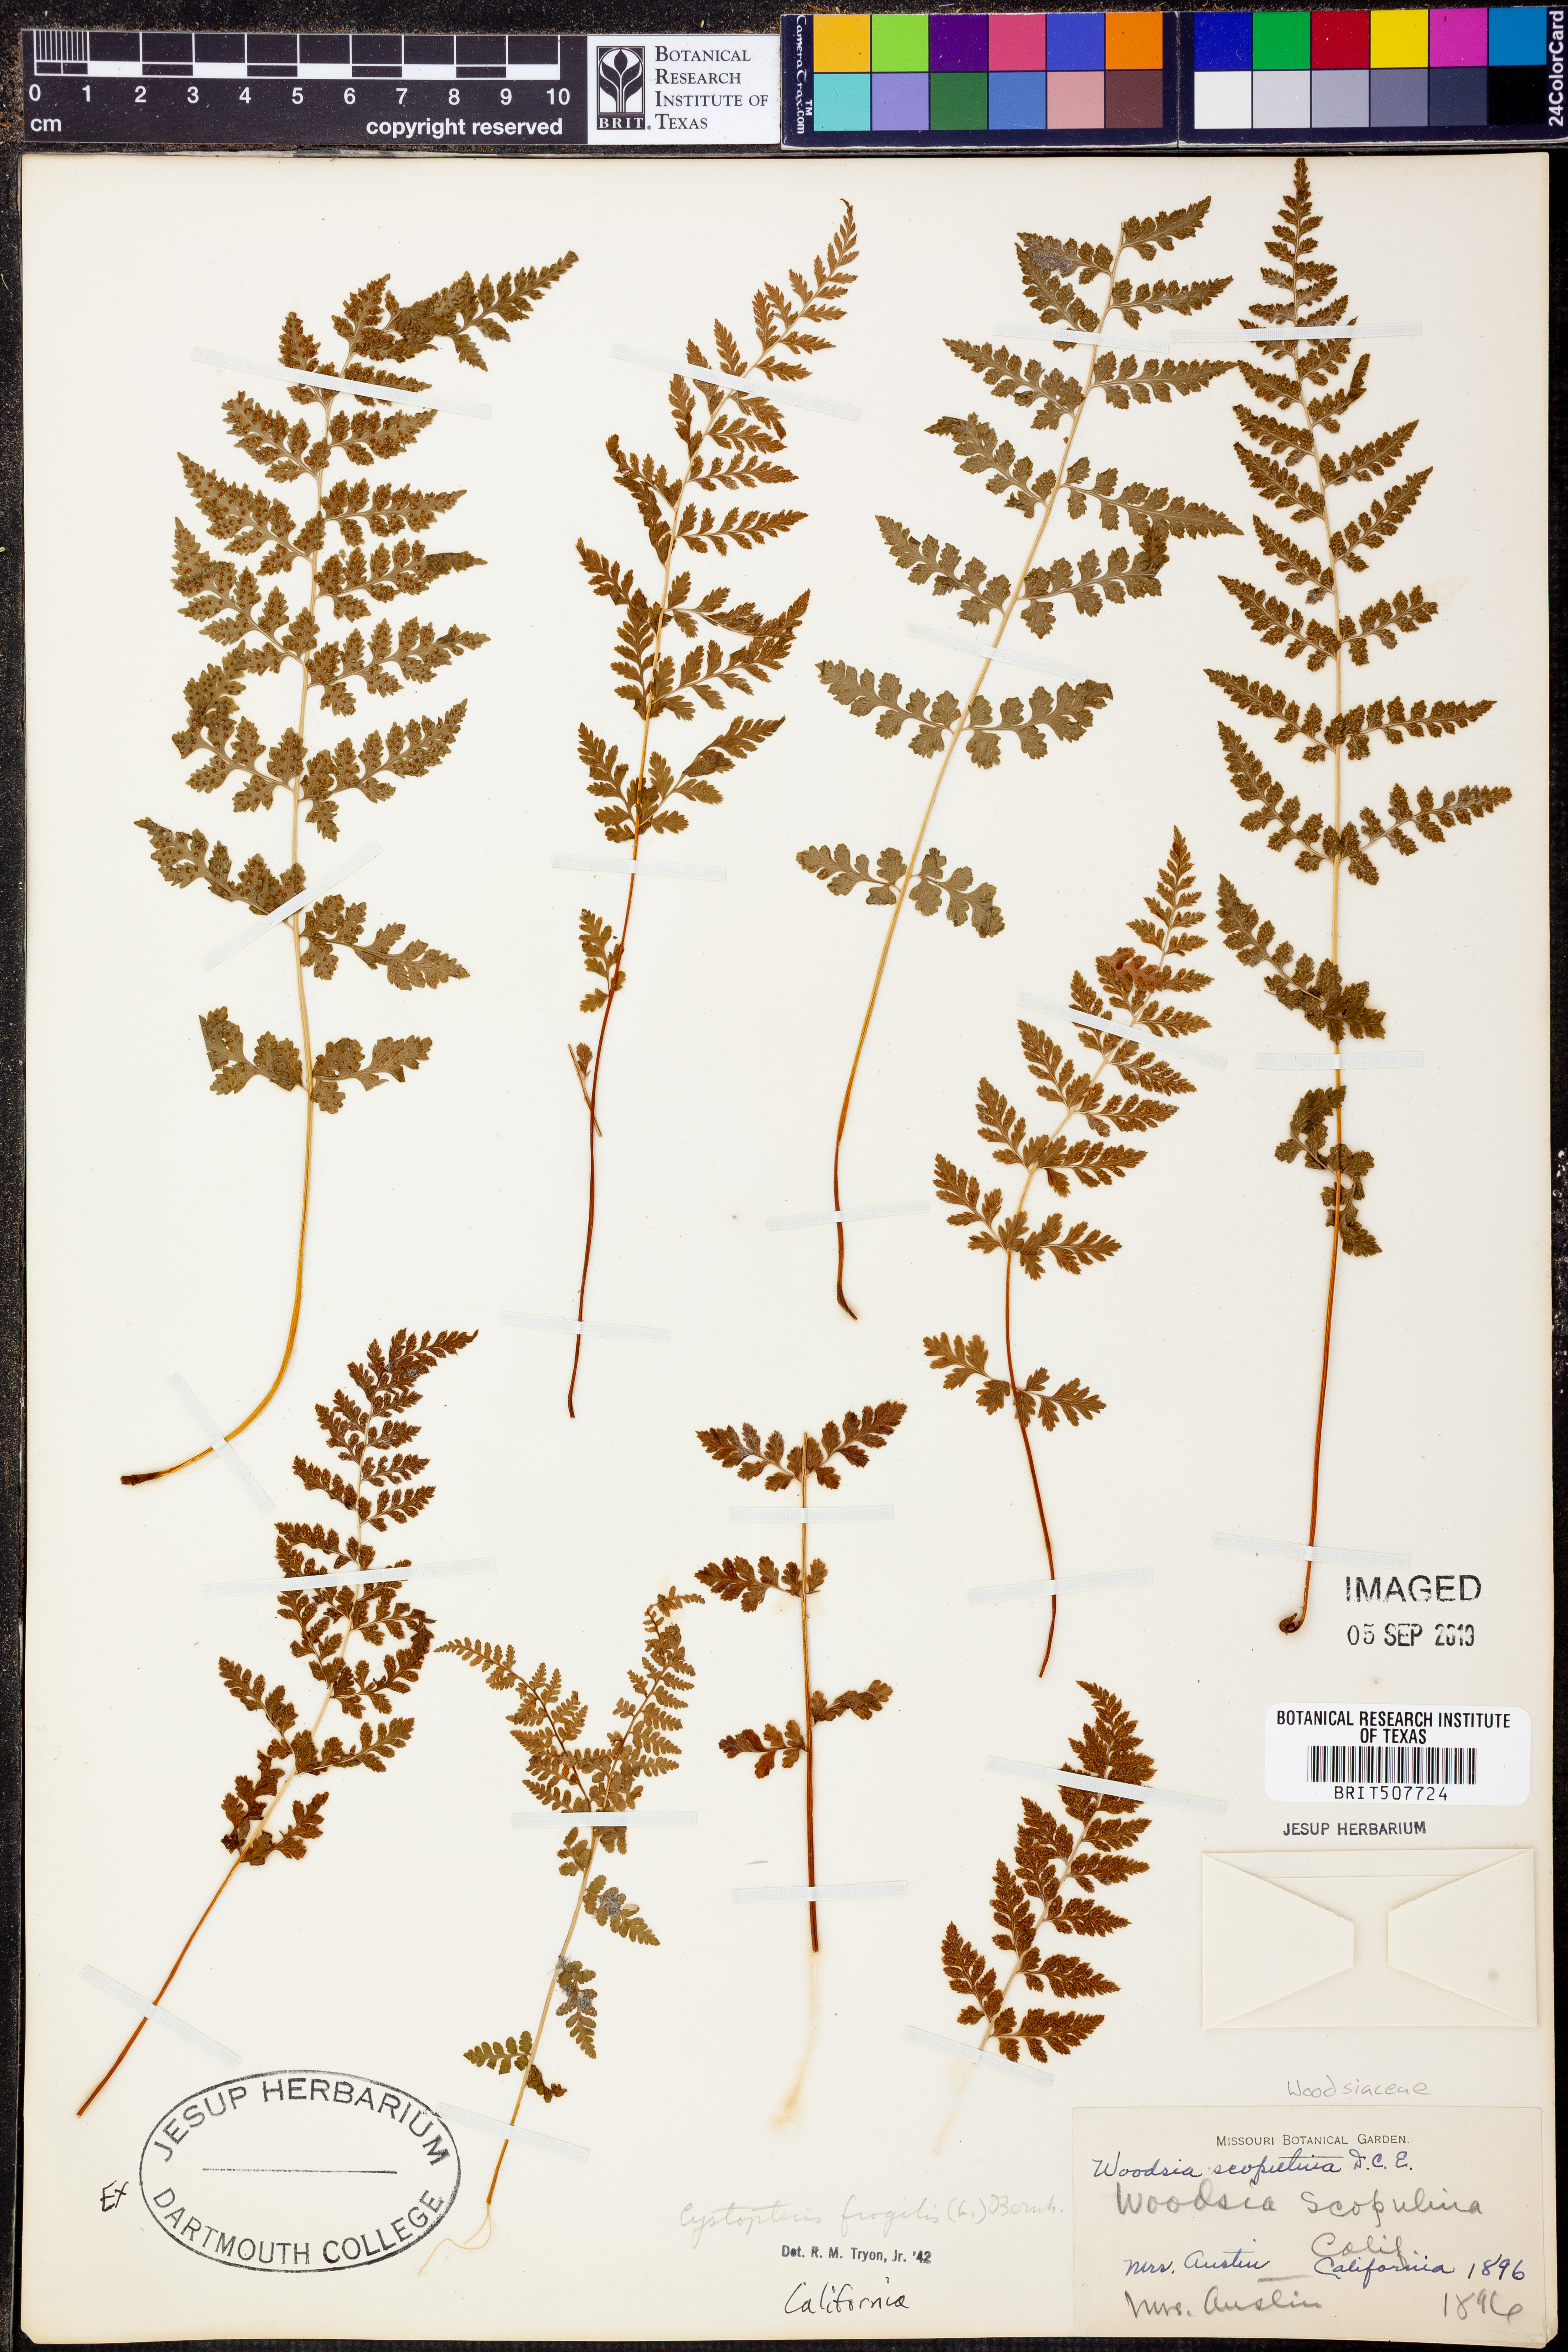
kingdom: Plantae
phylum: Tracheophyta
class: Polypodiopsida
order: Polypodiales
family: Cystopteridaceae
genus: Cystopteris
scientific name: Cystopteris fragilis
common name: Brittle bladder fern
